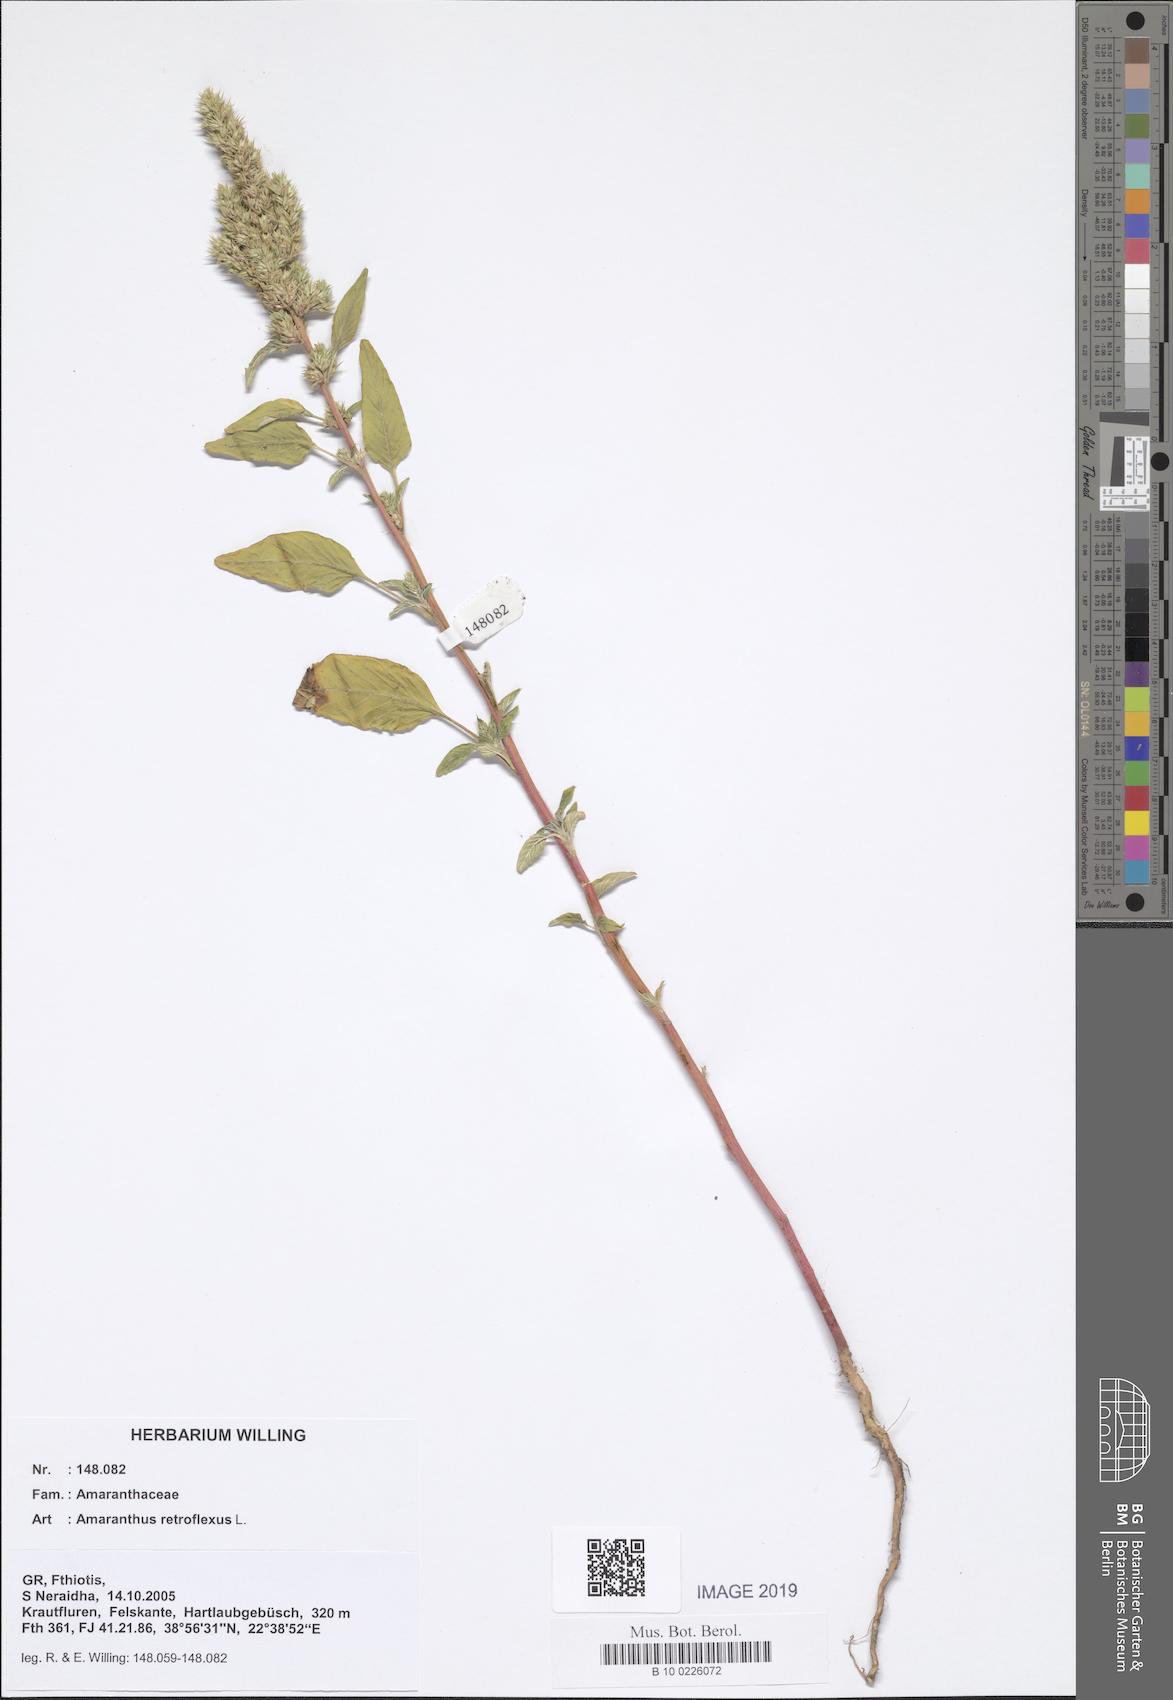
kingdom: Plantae
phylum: Tracheophyta
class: Magnoliopsida
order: Caryophyllales
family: Amaranthaceae
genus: Amaranthus
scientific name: Amaranthus retroflexus
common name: Redroot amaranth
